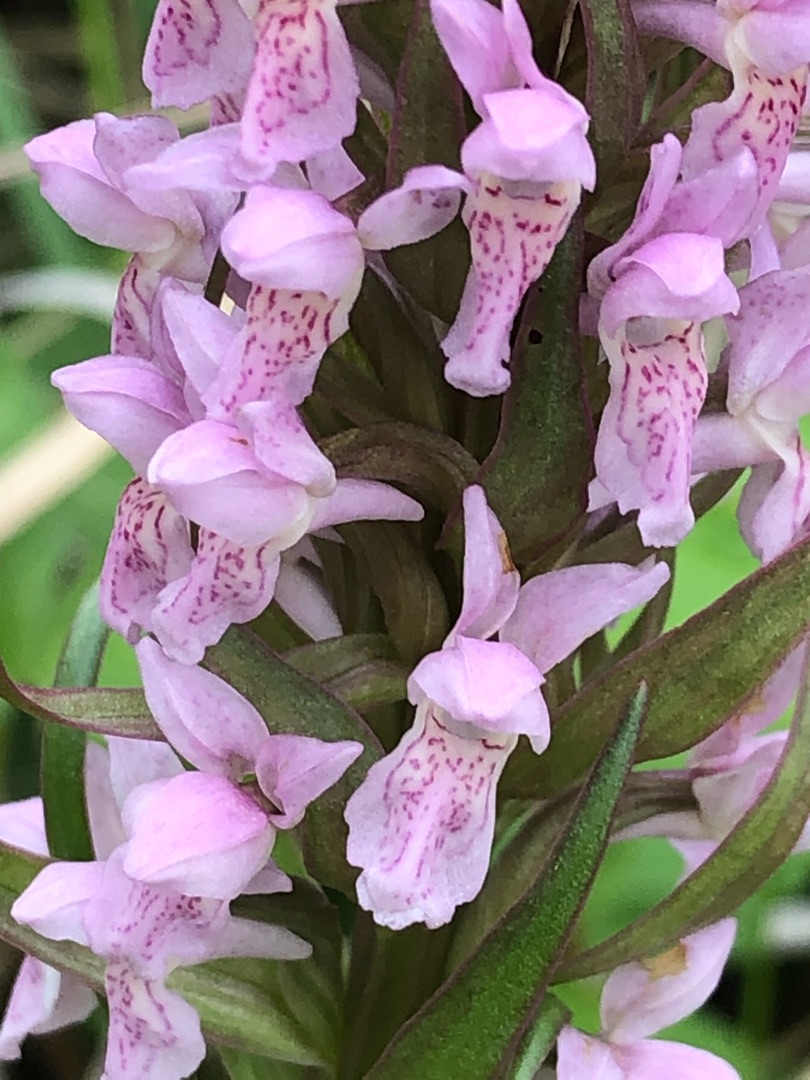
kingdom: Plantae
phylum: Tracheophyta
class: Liliopsida
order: Asparagales
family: Orchidaceae
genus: Dactylorhiza
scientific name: Dactylorhiza incarnata
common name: Kødfarvet gøgeurt
